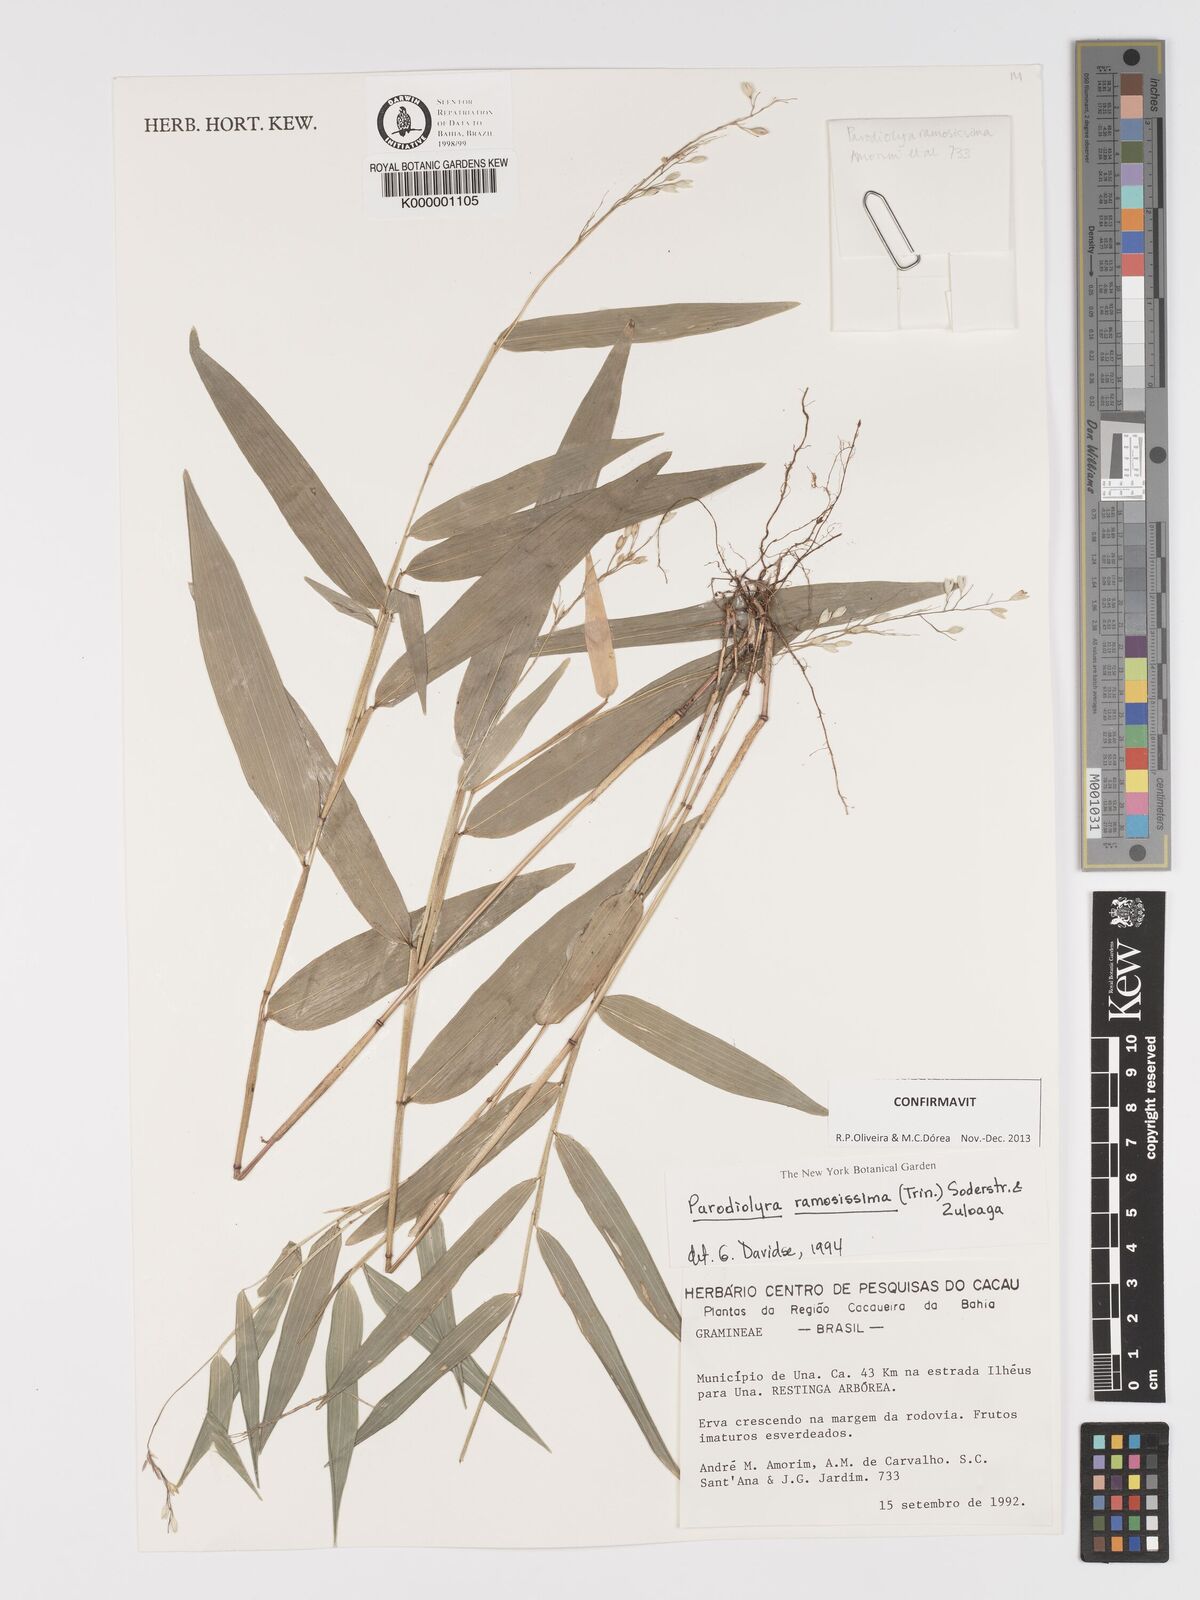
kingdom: Plantae
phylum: Tracheophyta
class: Liliopsida
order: Poales
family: Poaceae
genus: Parodiolyra
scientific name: Parodiolyra ramosissima
